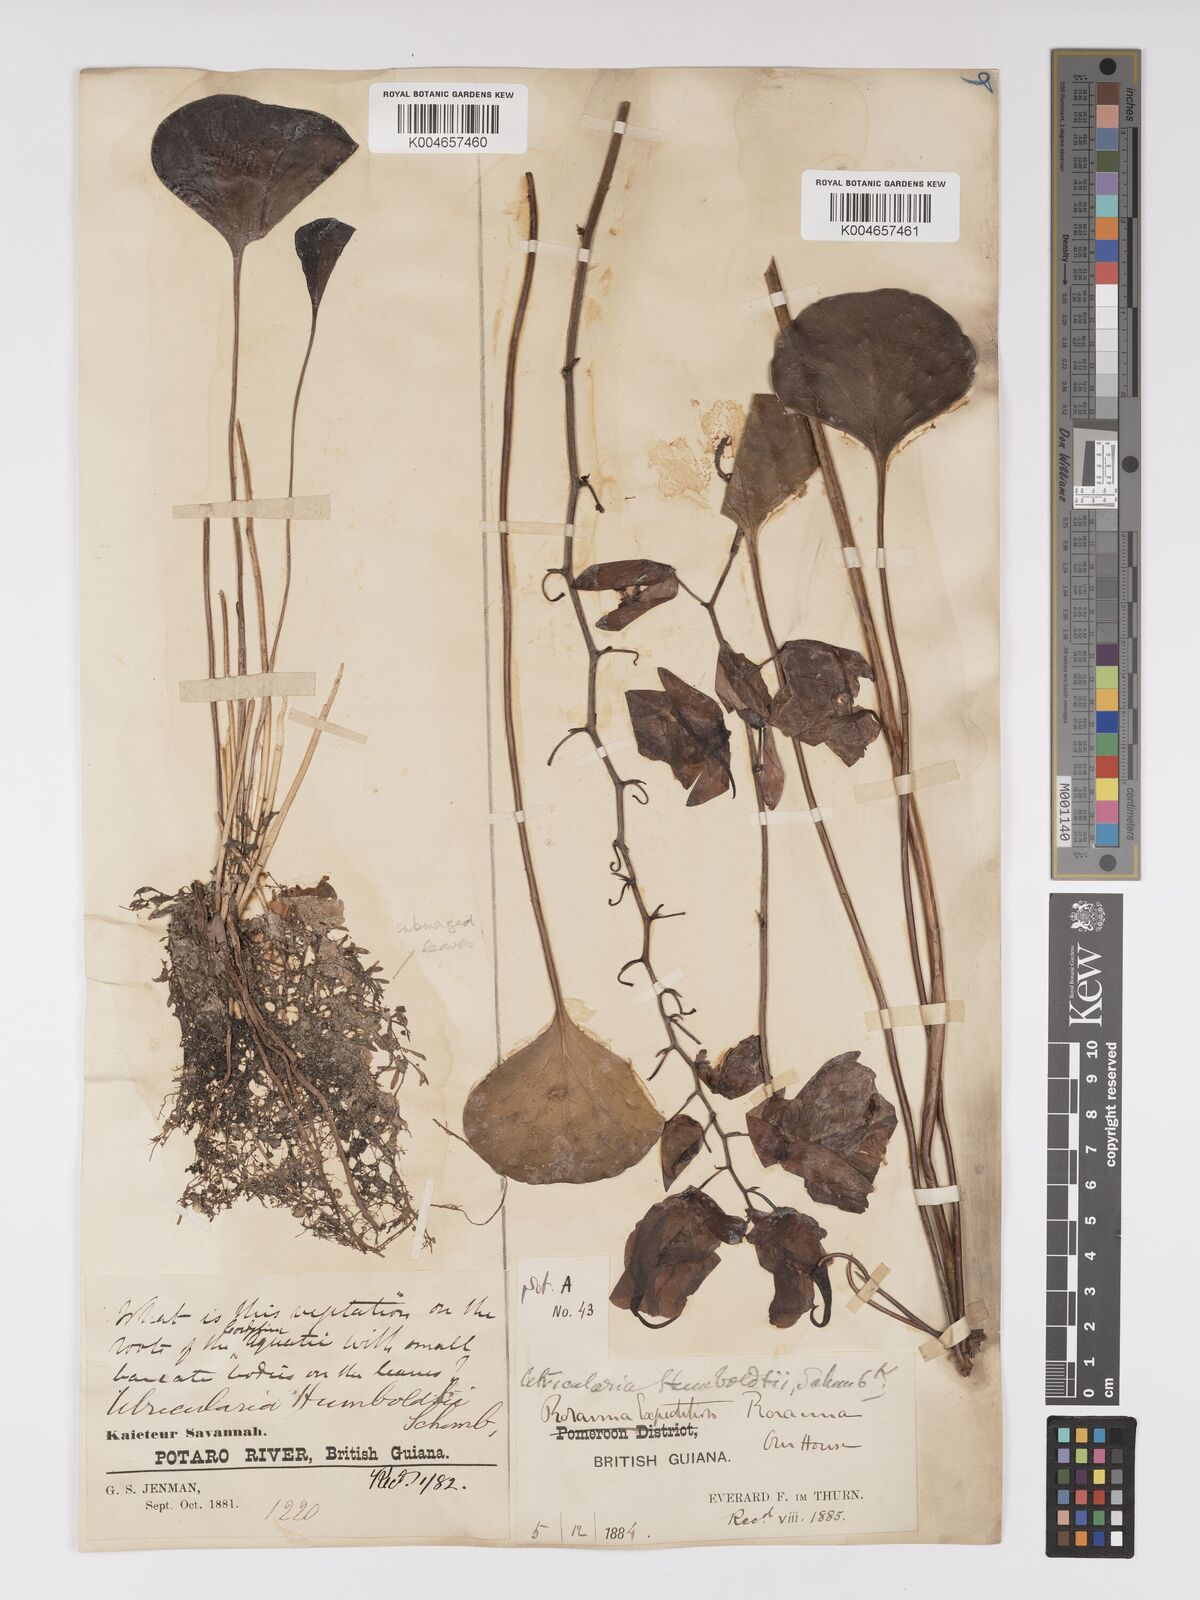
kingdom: Plantae
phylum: Tracheophyta
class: Magnoliopsida
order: Lamiales
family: Lentibulariaceae
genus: Utricularia
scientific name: Utricularia humboldtii
